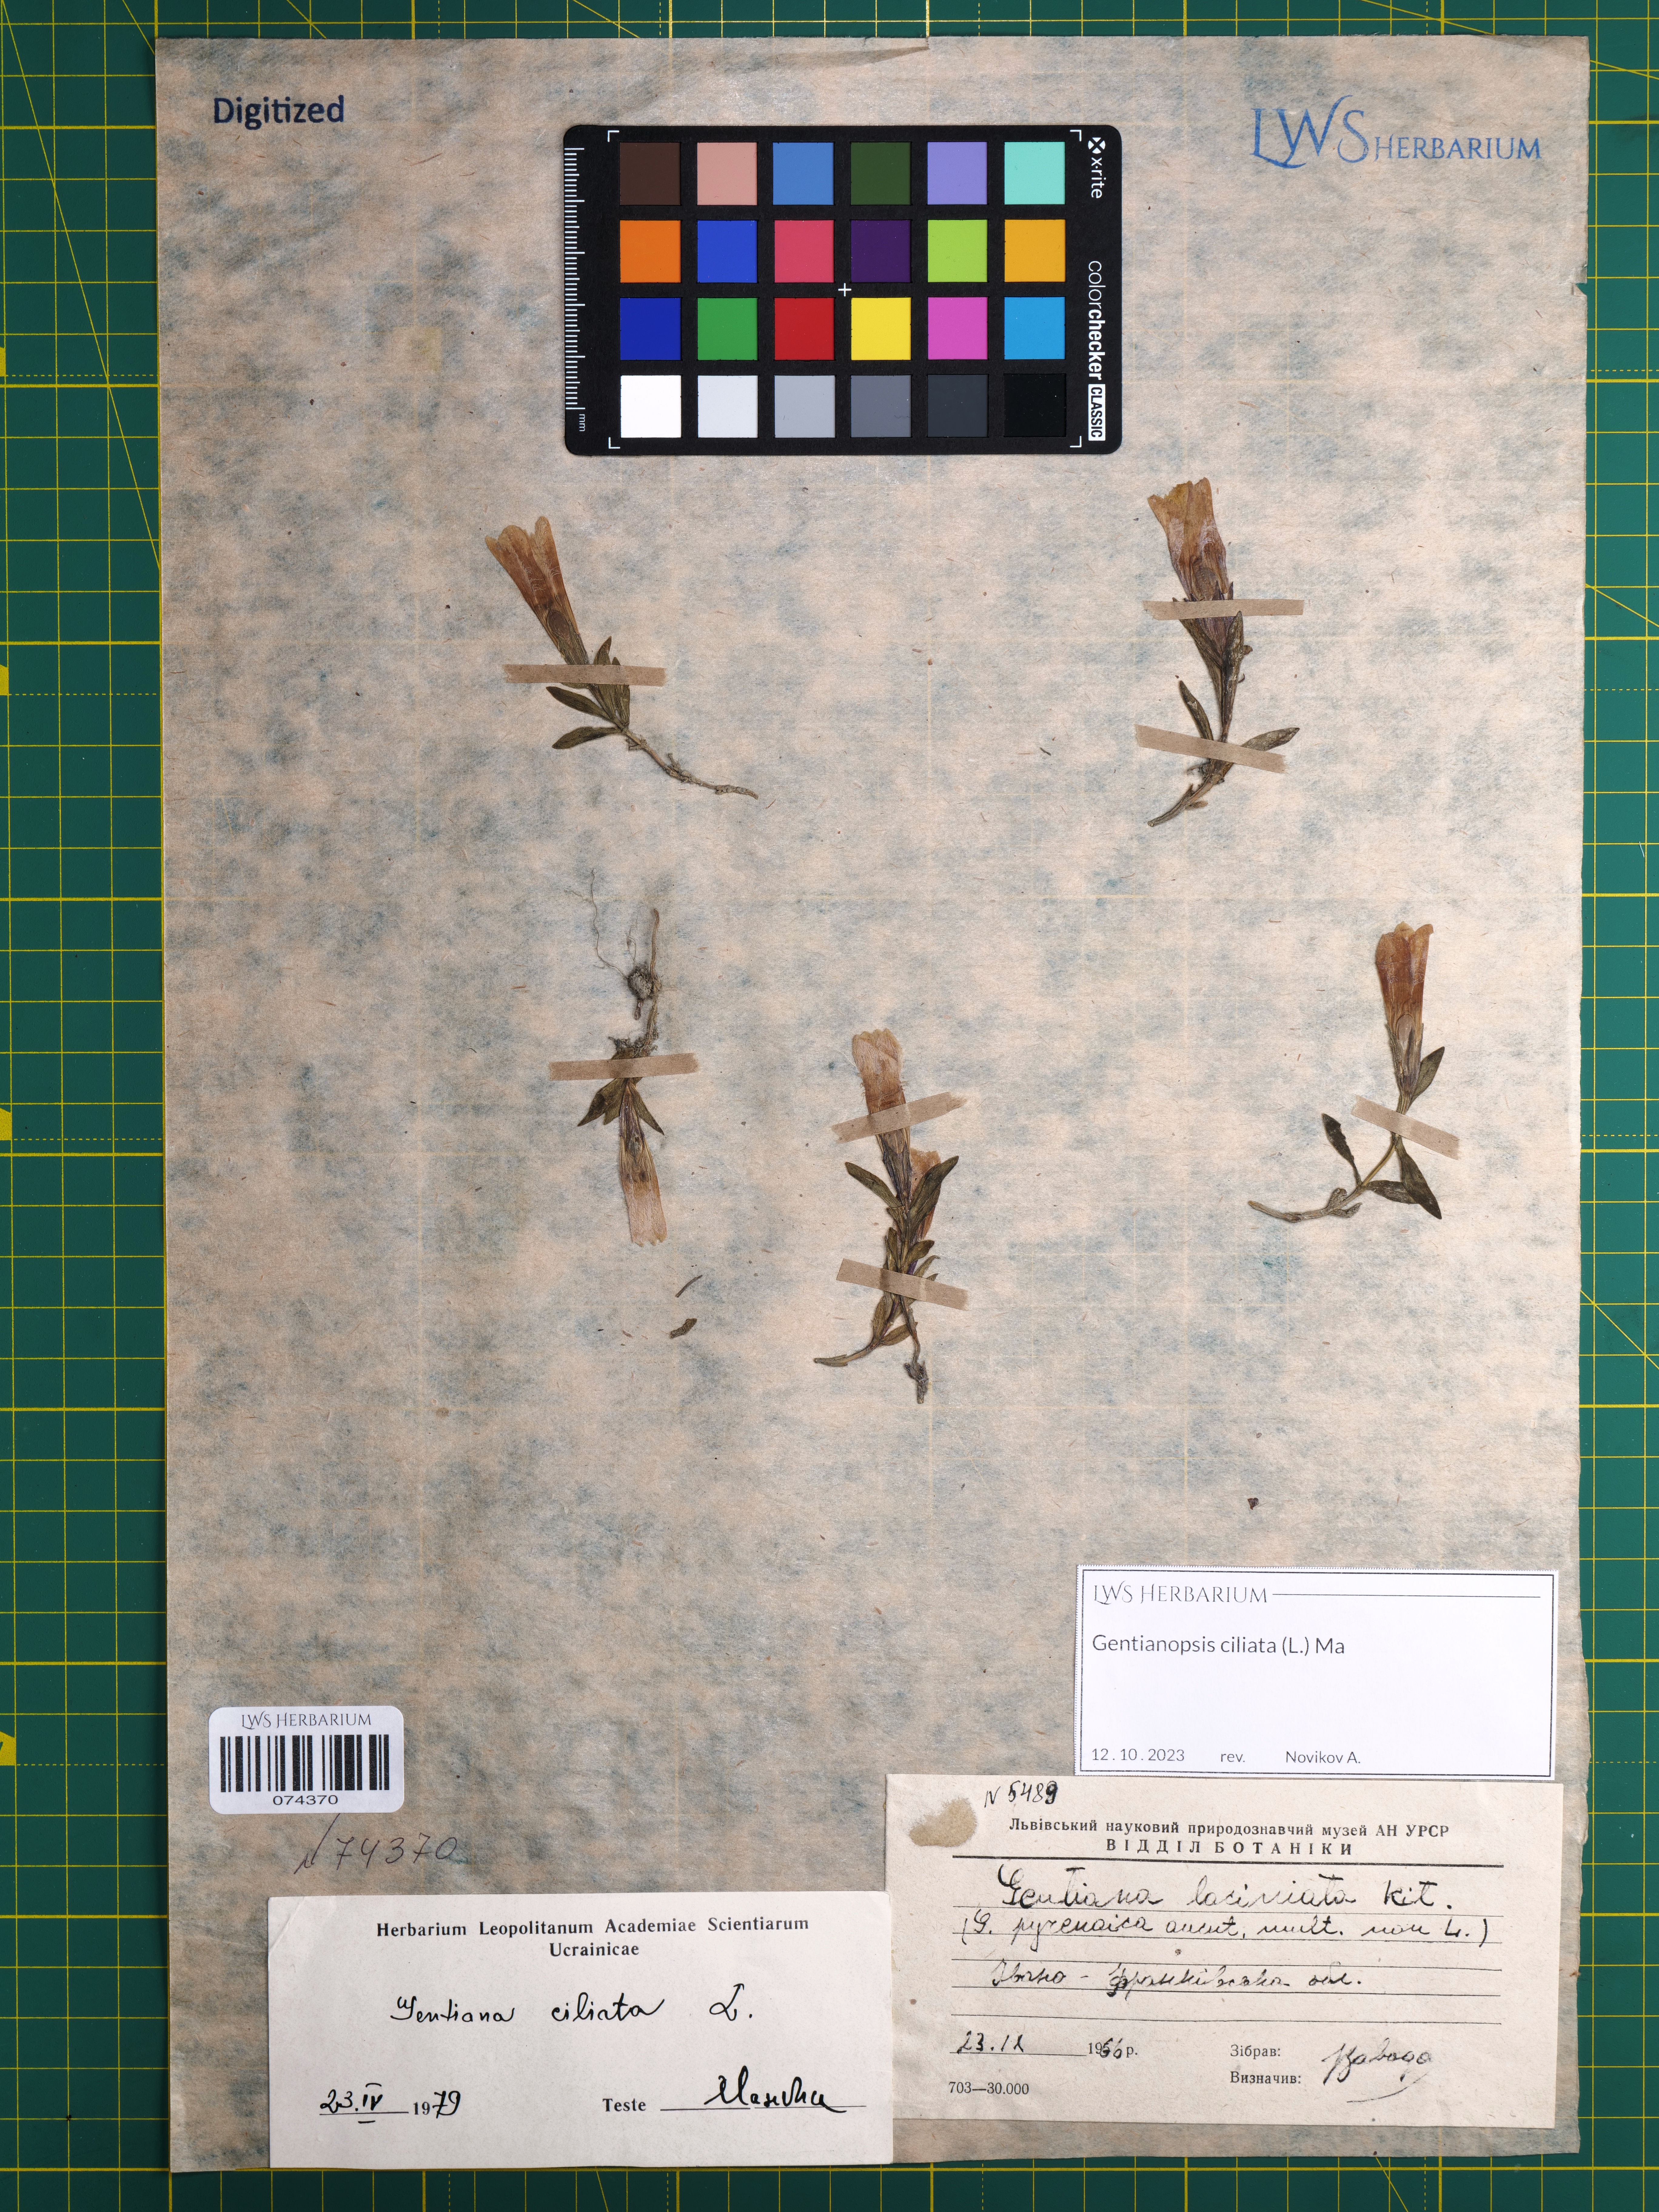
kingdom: Plantae
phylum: Tracheophyta
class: Magnoliopsida
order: Gentianales
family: Gentianaceae
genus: Gentianopsis
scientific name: Gentianopsis ciliata
